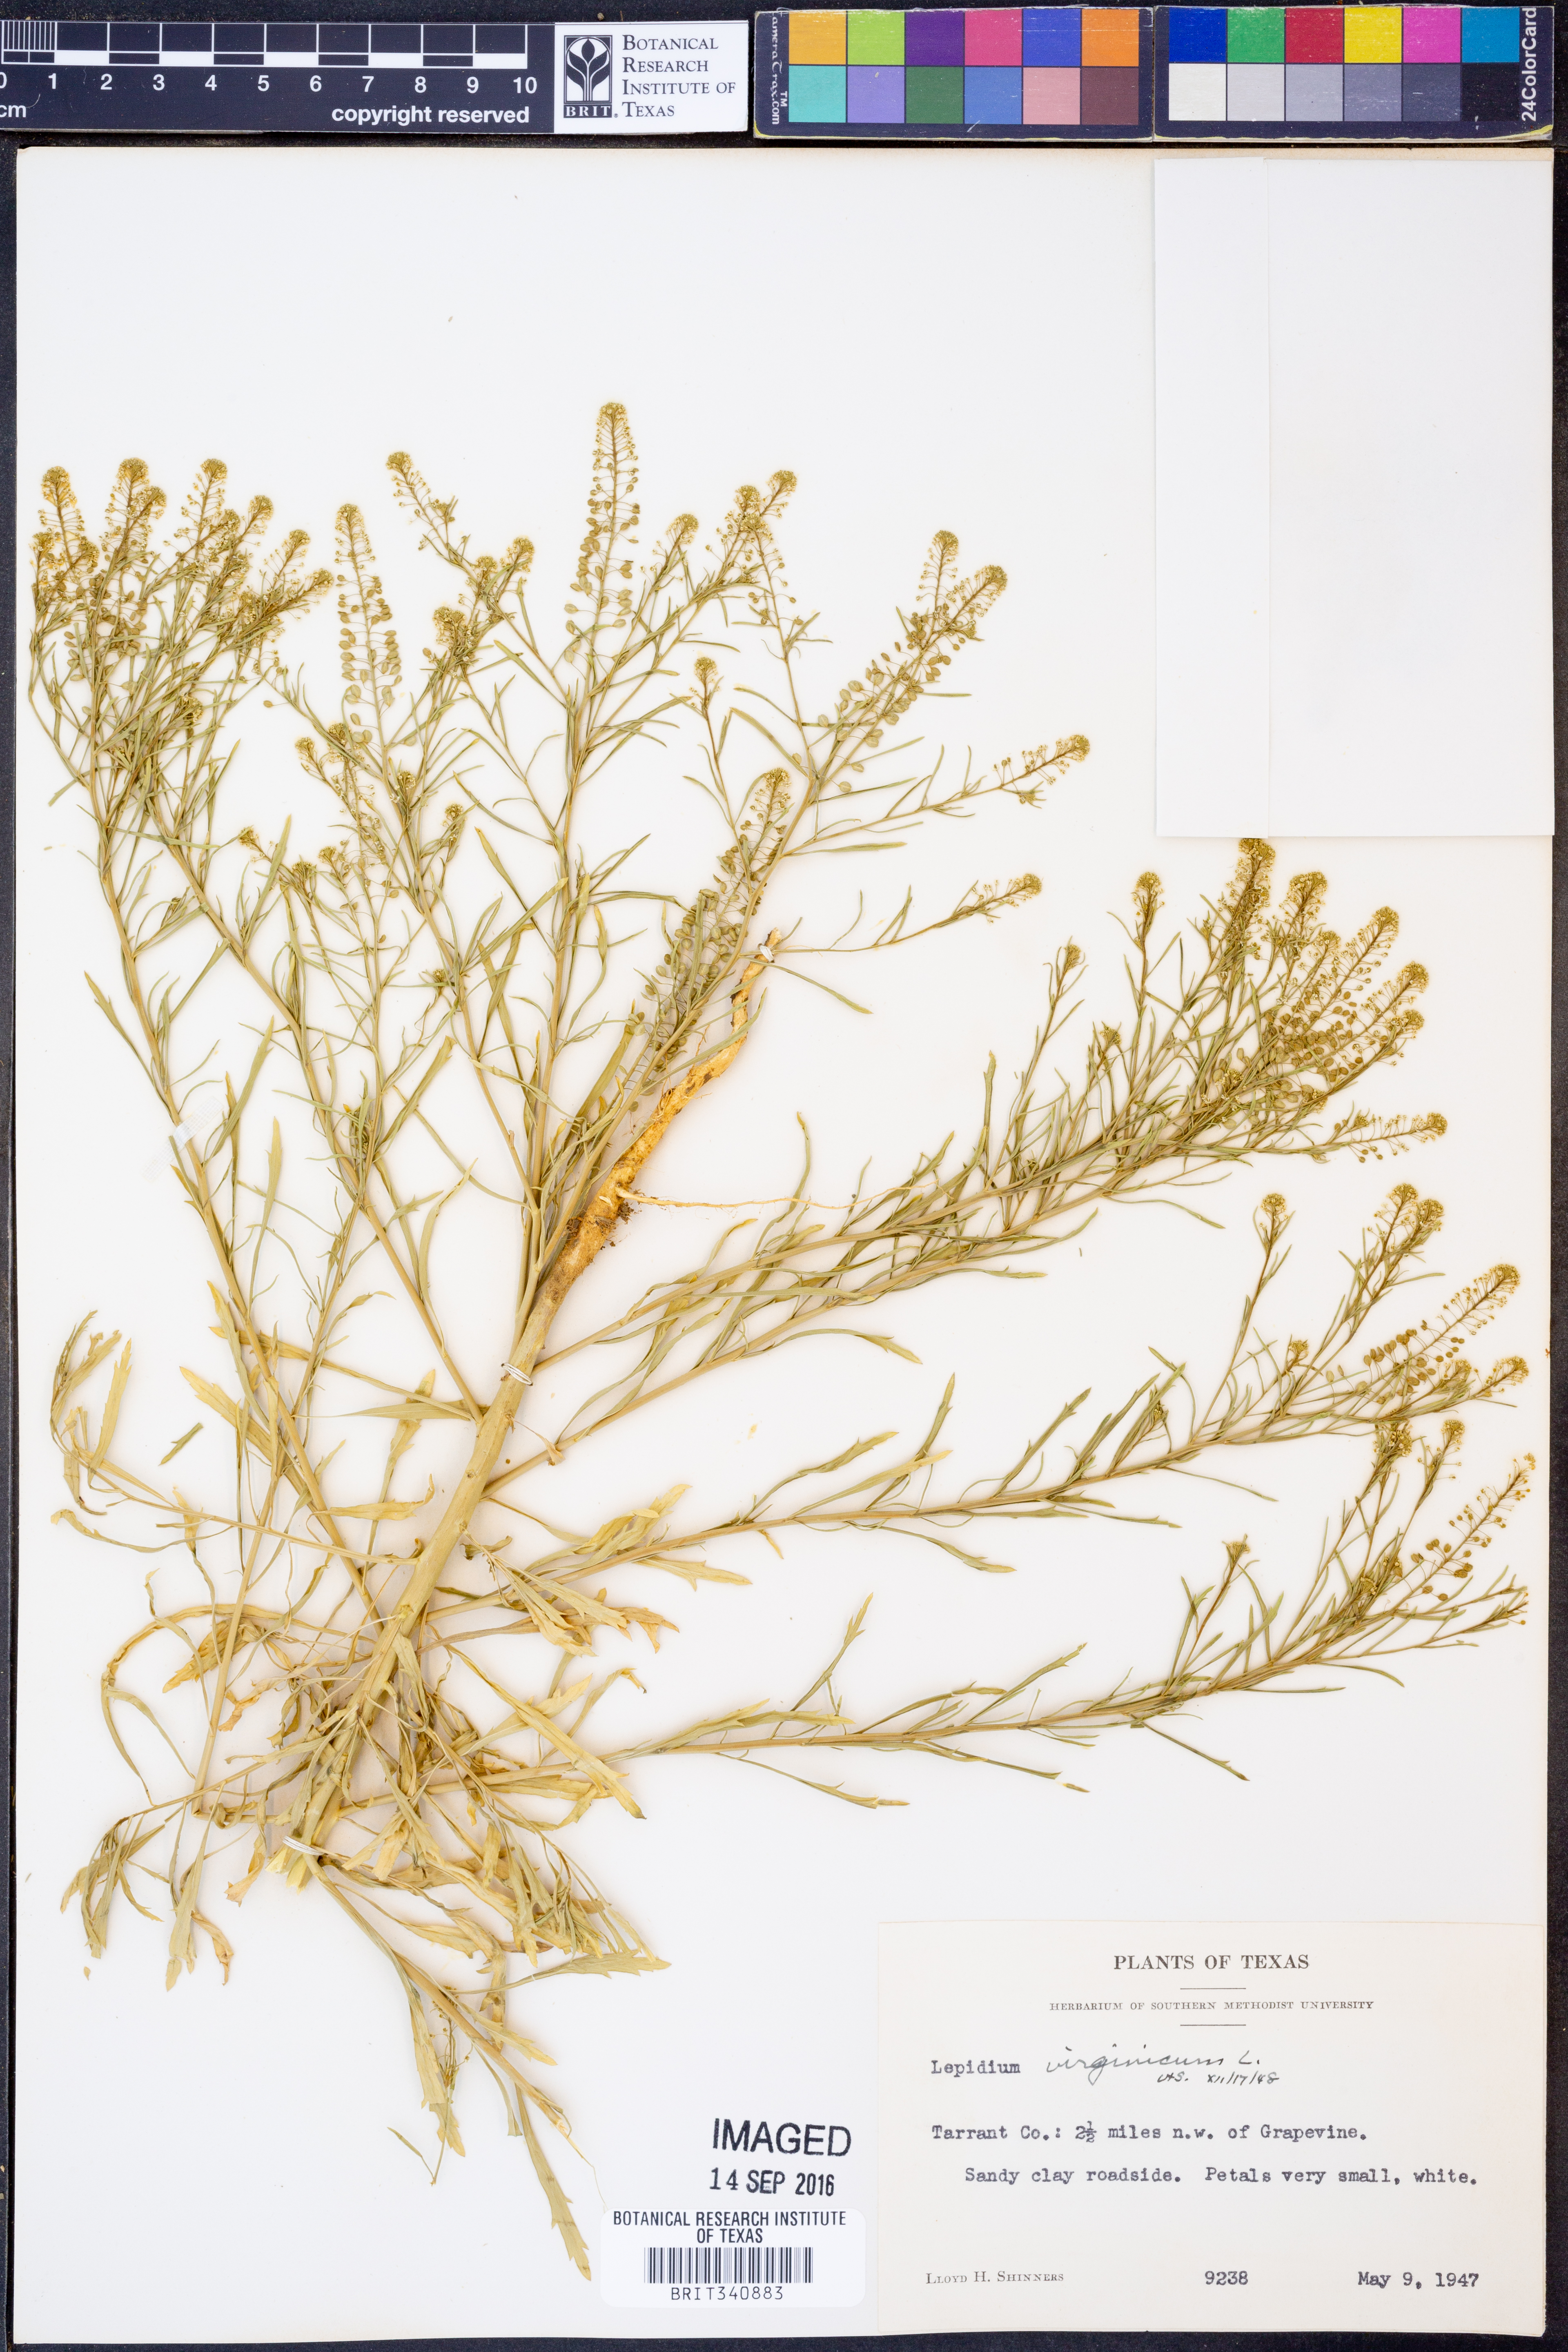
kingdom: Plantae
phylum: Tracheophyta
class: Magnoliopsida
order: Brassicales
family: Brassicaceae
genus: Lepidium
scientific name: Lepidium virginicum
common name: Least pepperwort
